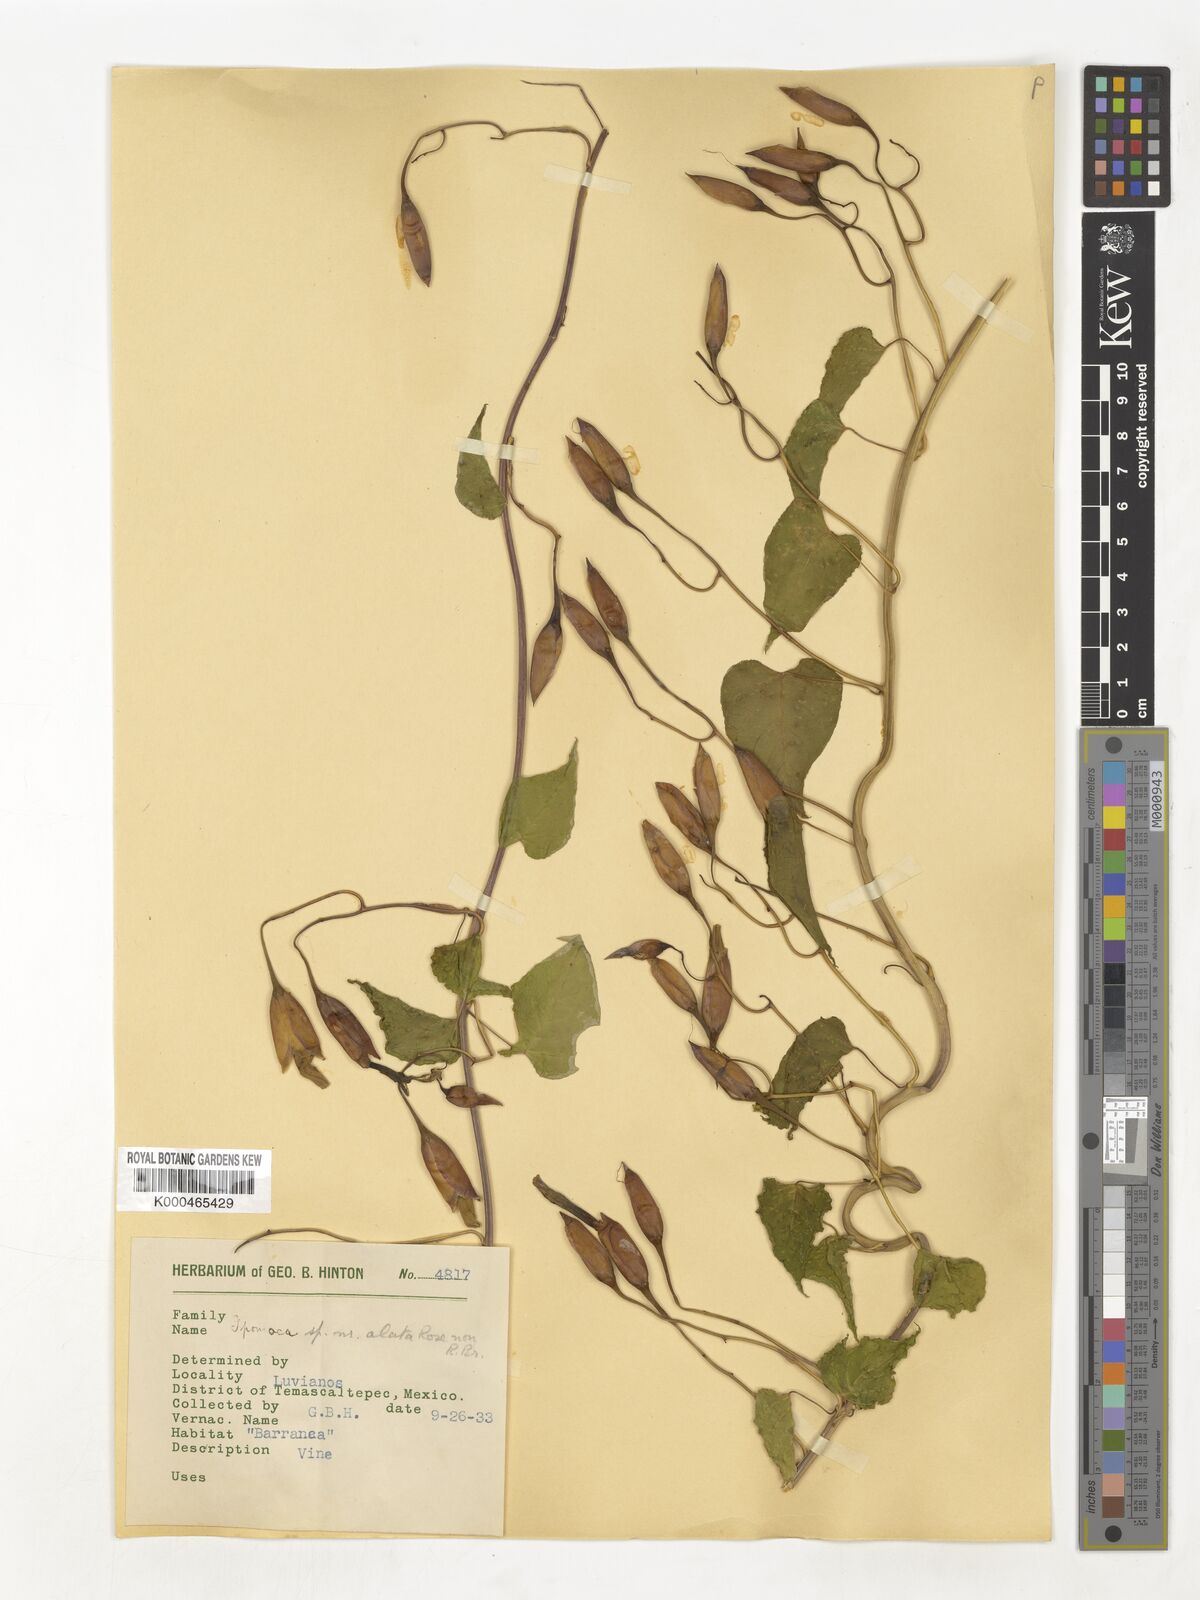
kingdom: Plantae
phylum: Tracheophyta
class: Magnoliopsida
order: Solanales
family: Convolvulaceae
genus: Operculina
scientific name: Operculina
